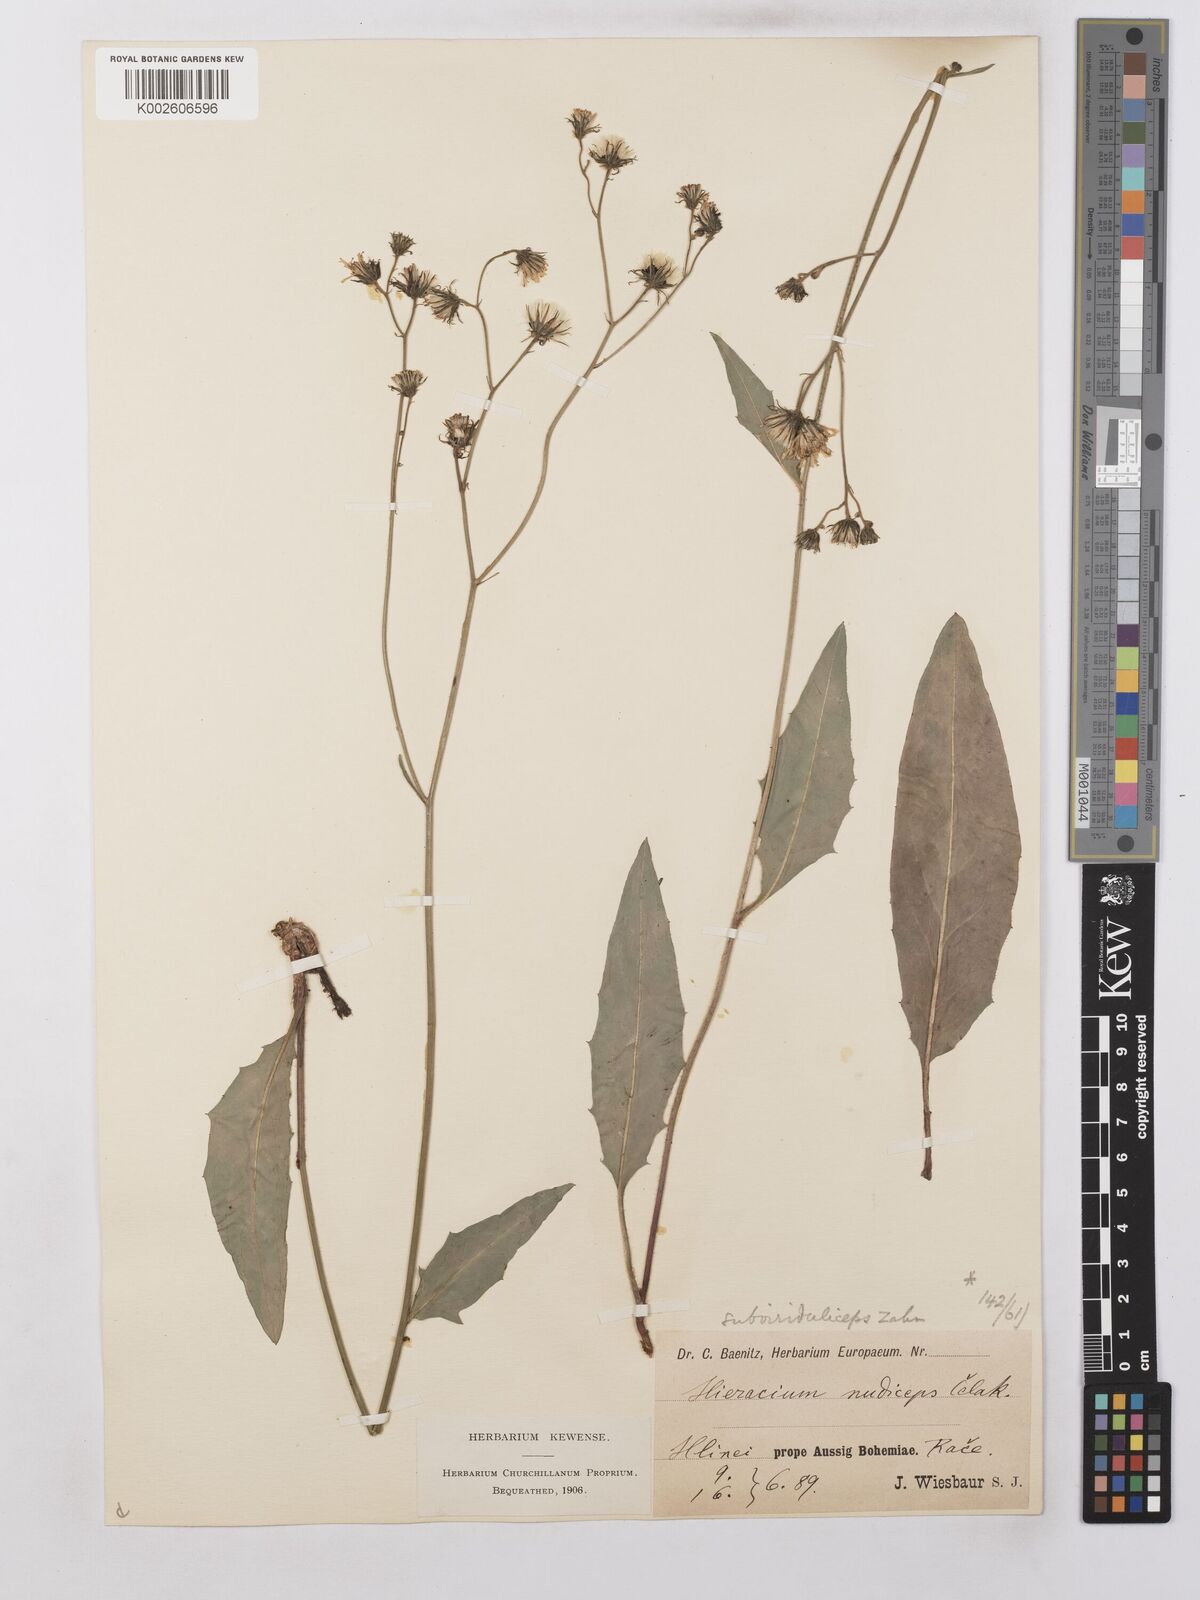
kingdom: Plantae
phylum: Tracheophyta
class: Magnoliopsida
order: Asterales
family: Asteraceae
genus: Hieracium
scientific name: Hieracium lachenalii
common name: Common hawkweed
